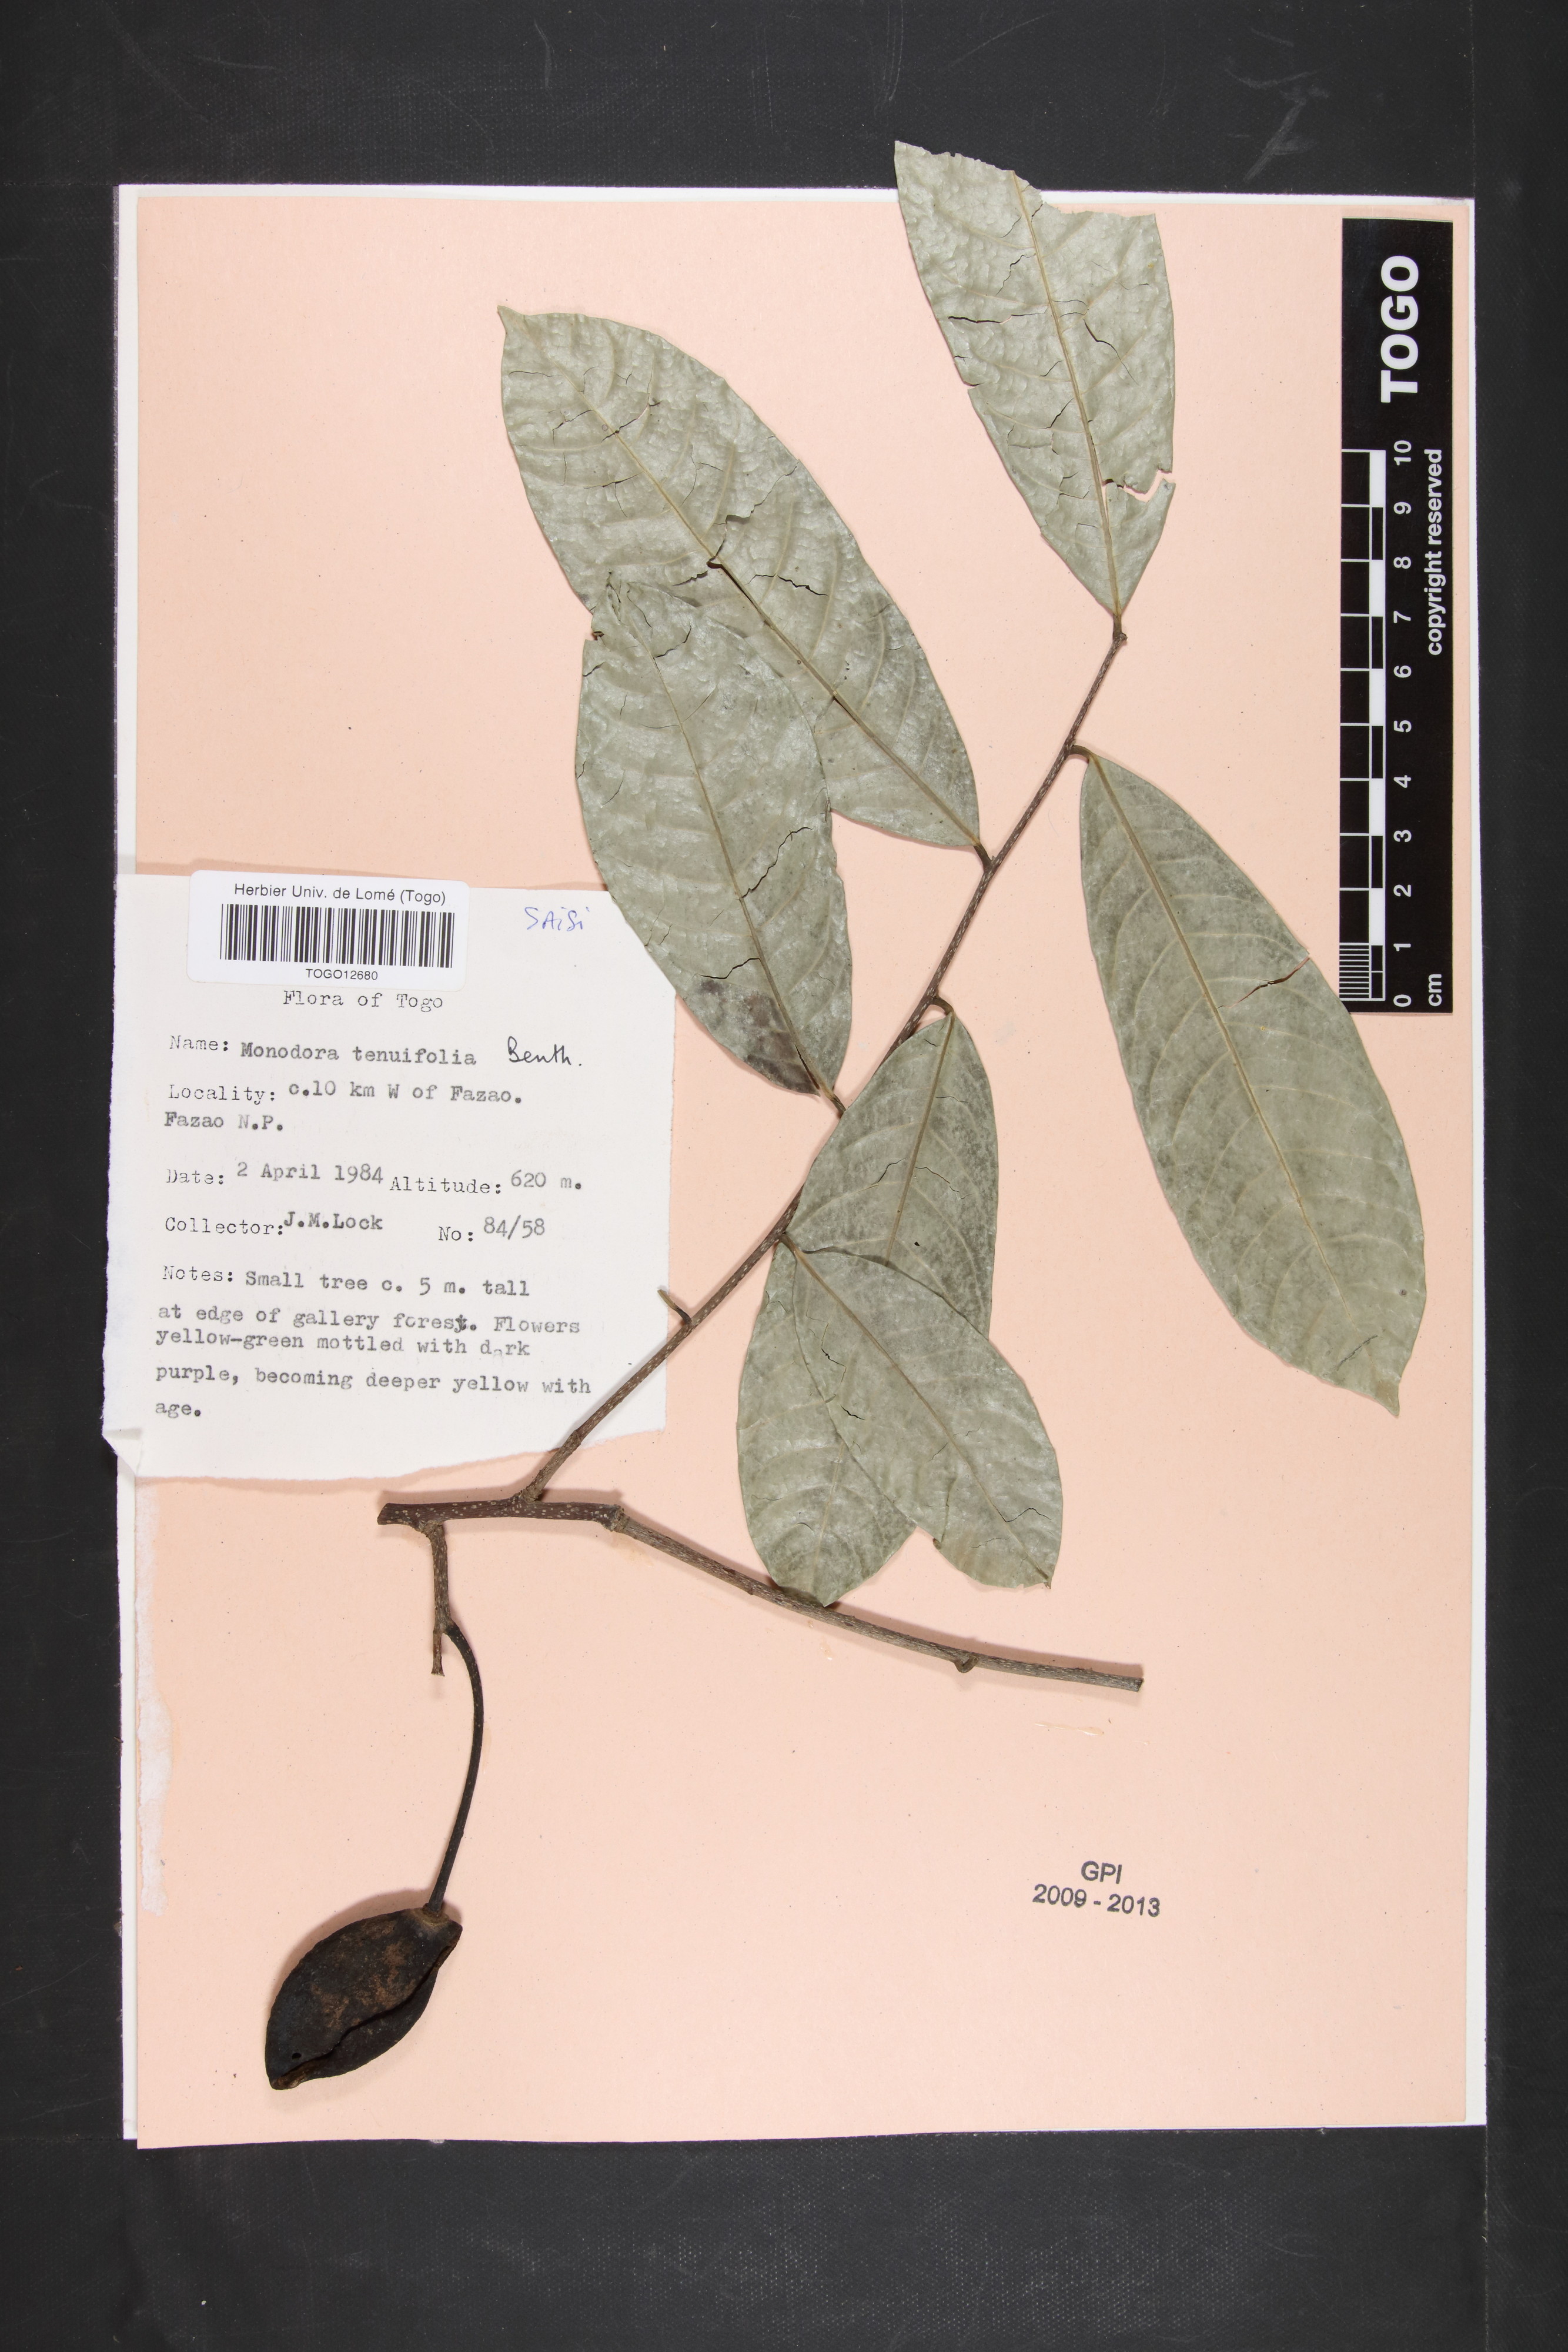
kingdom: Plantae
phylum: Tracheophyta
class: Magnoliopsida
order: Magnoliales
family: Annonaceae
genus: Monodora
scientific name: Monodora tenuifolia
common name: Orchidtree
